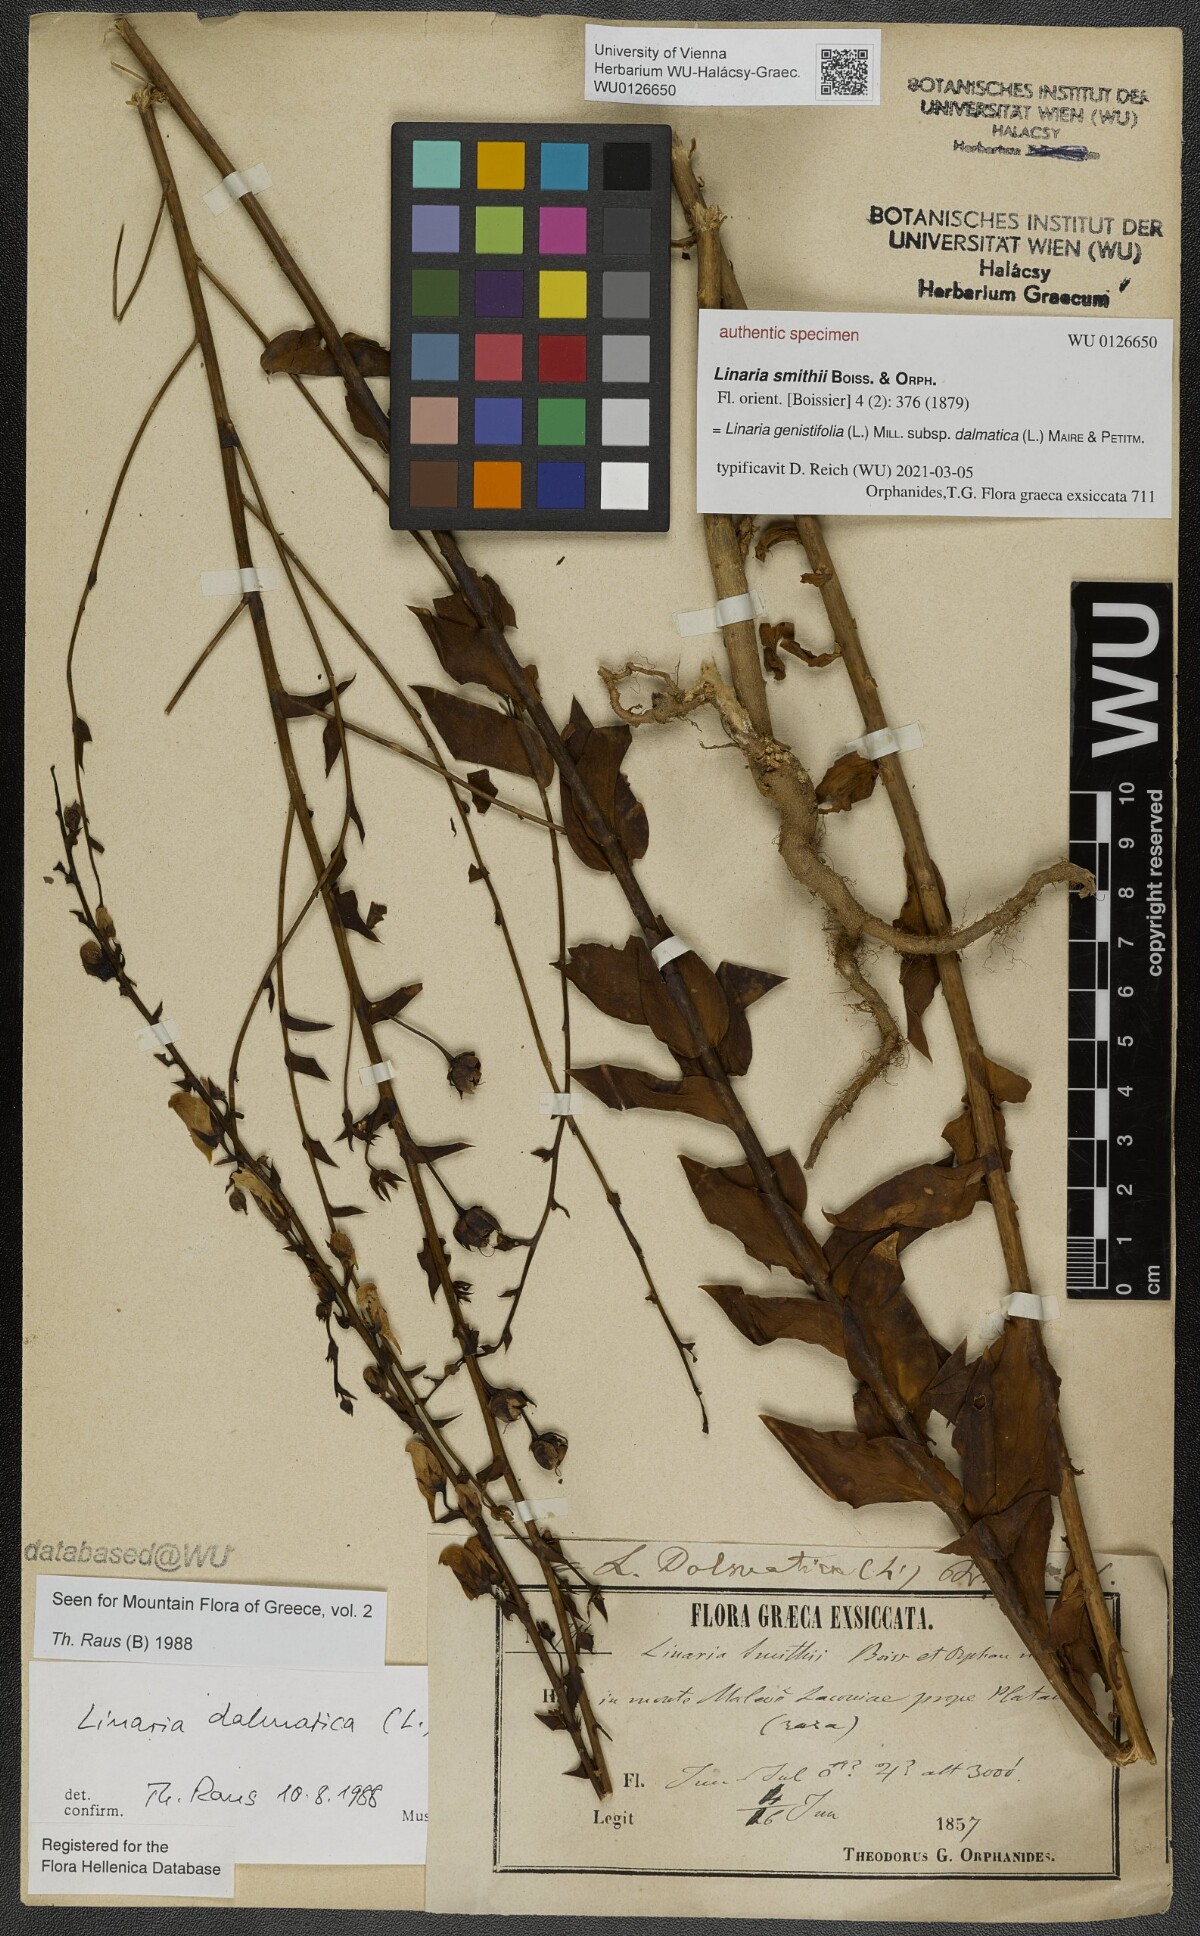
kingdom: Plantae
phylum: Tracheophyta
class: Magnoliopsida
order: Lamiales
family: Plantaginaceae
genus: Linaria
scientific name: Linaria dalmatica
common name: Dalmatian toadflax
